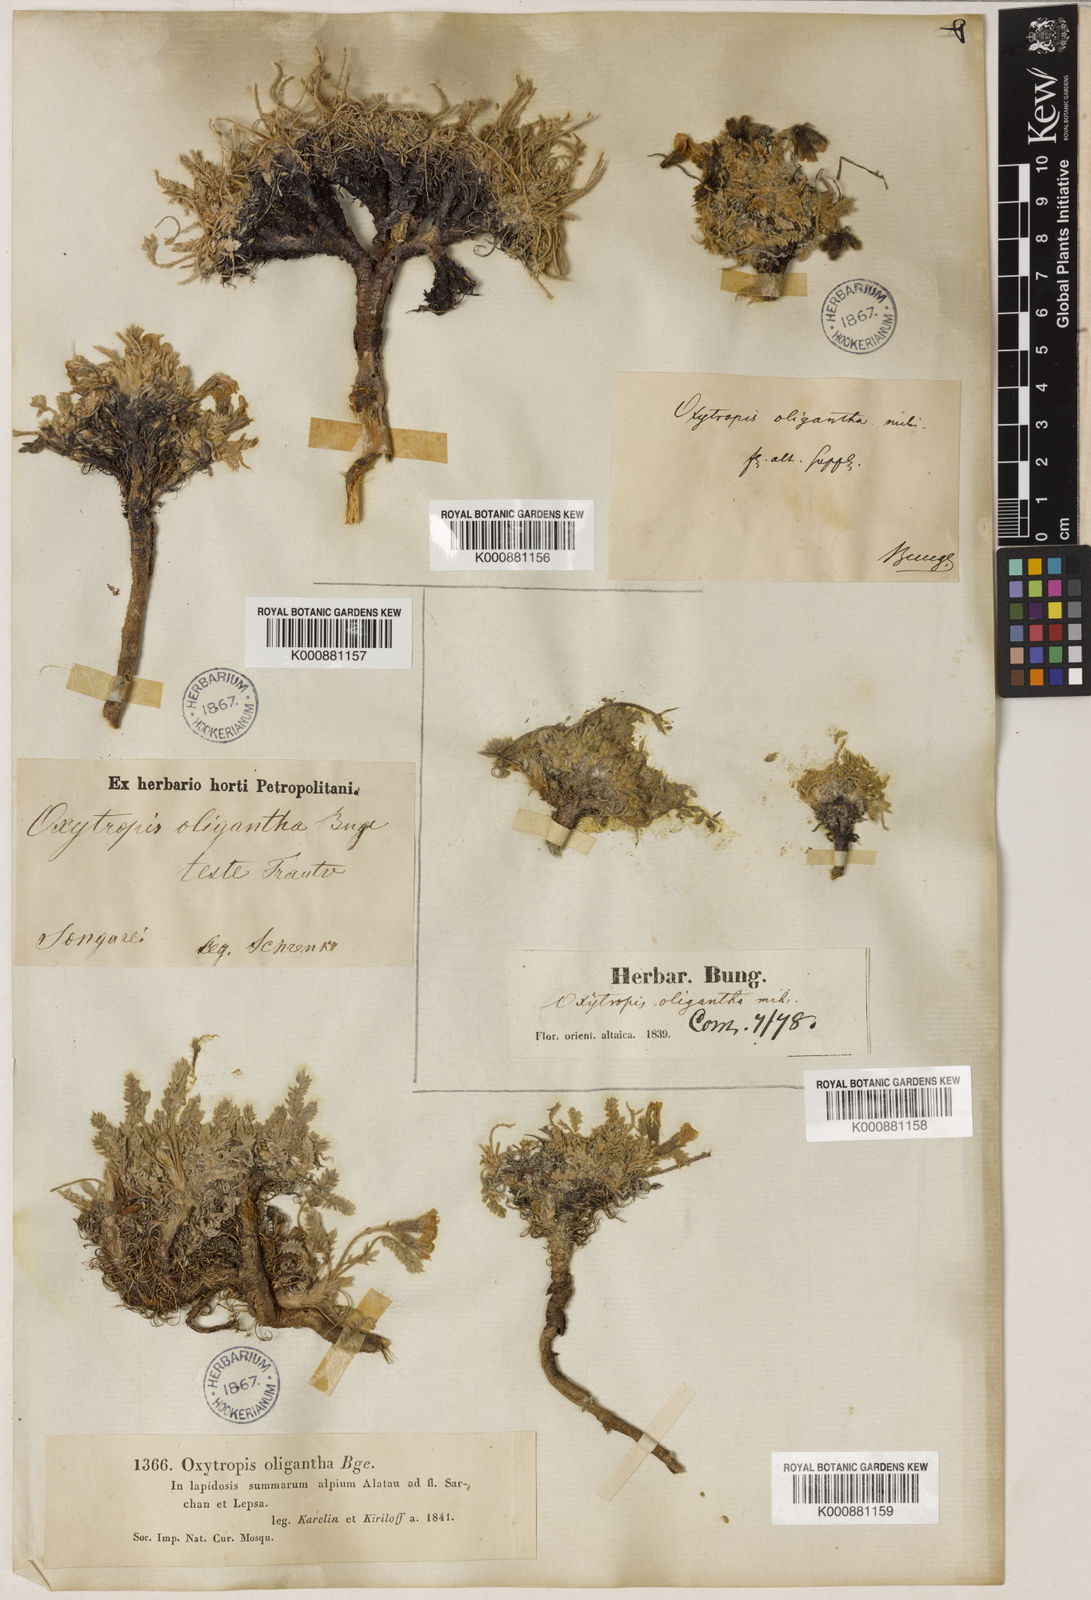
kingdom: Plantae
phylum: Tracheophyta
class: Magnoliopsida
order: Fabales
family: Fabaceae
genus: Oxytropis
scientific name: Oxytropis oligantha
